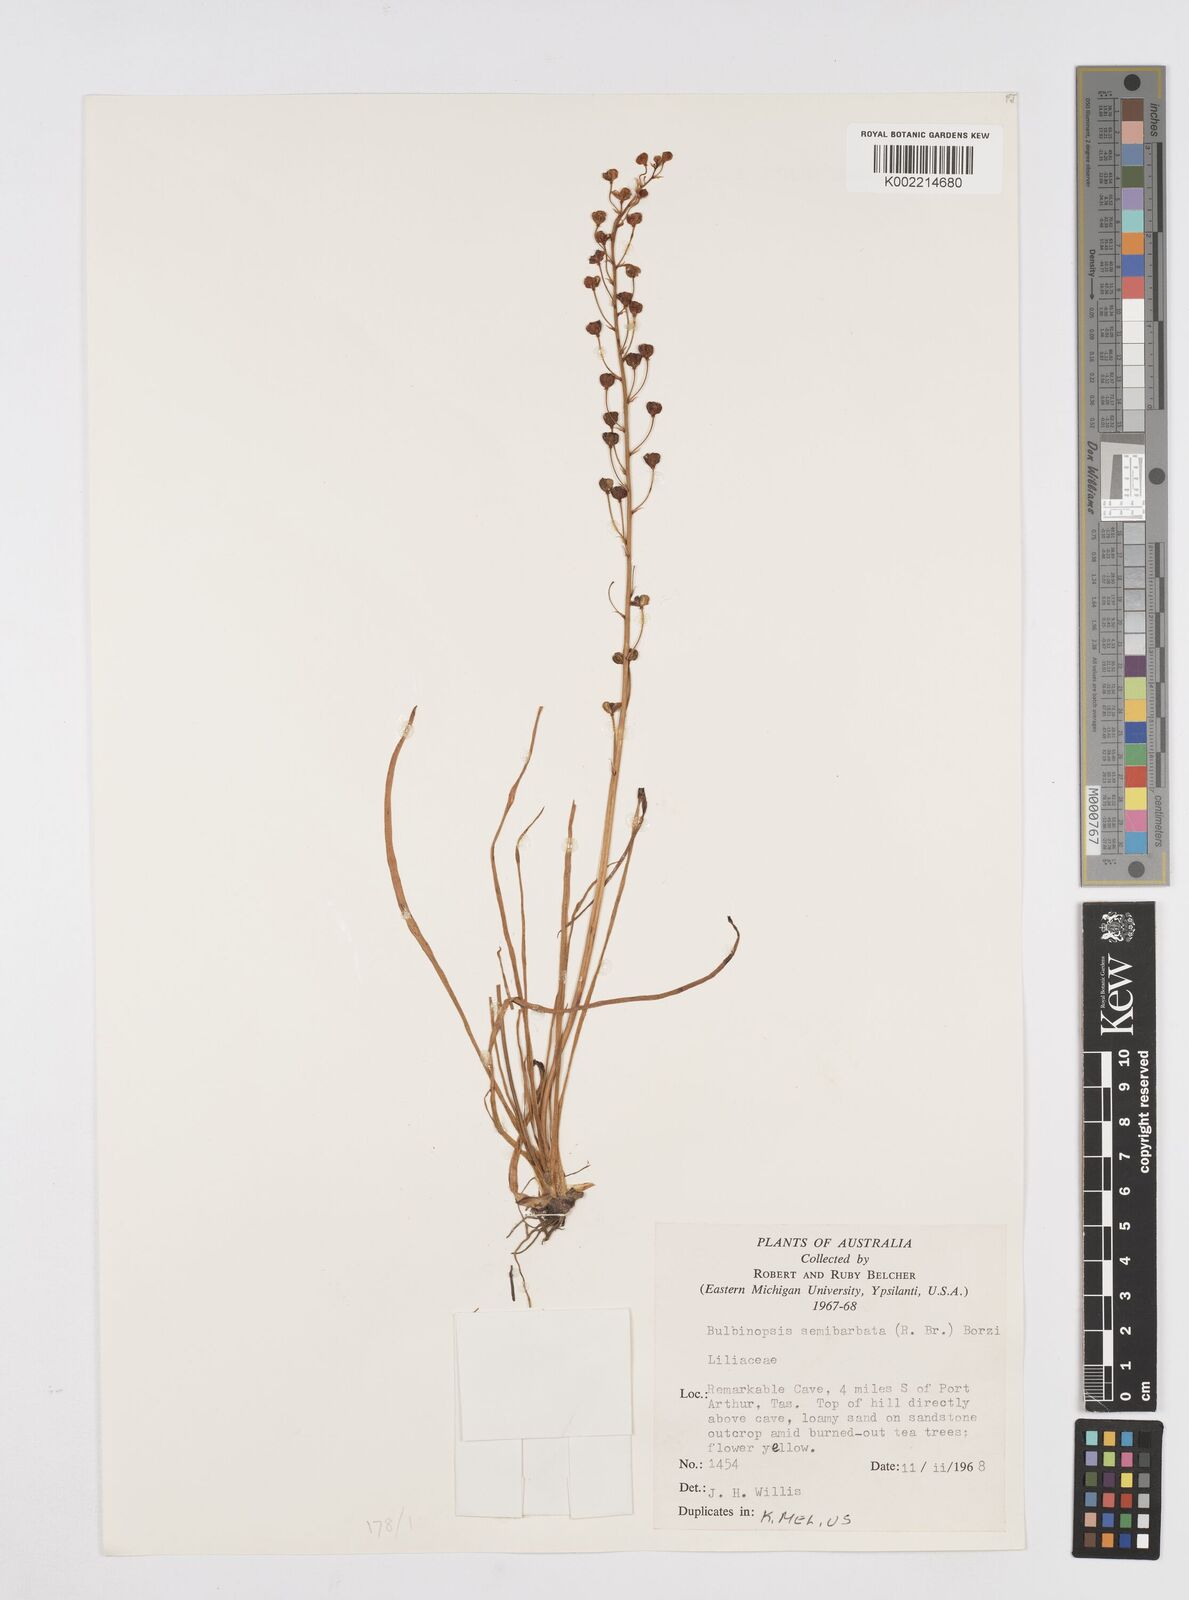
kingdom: Plantae
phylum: Tracheophyta
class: Liliopsida
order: Asparagales
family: Asphodelaceae
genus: Bulbine
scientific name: Bulbine semibarbata
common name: Leek lily
